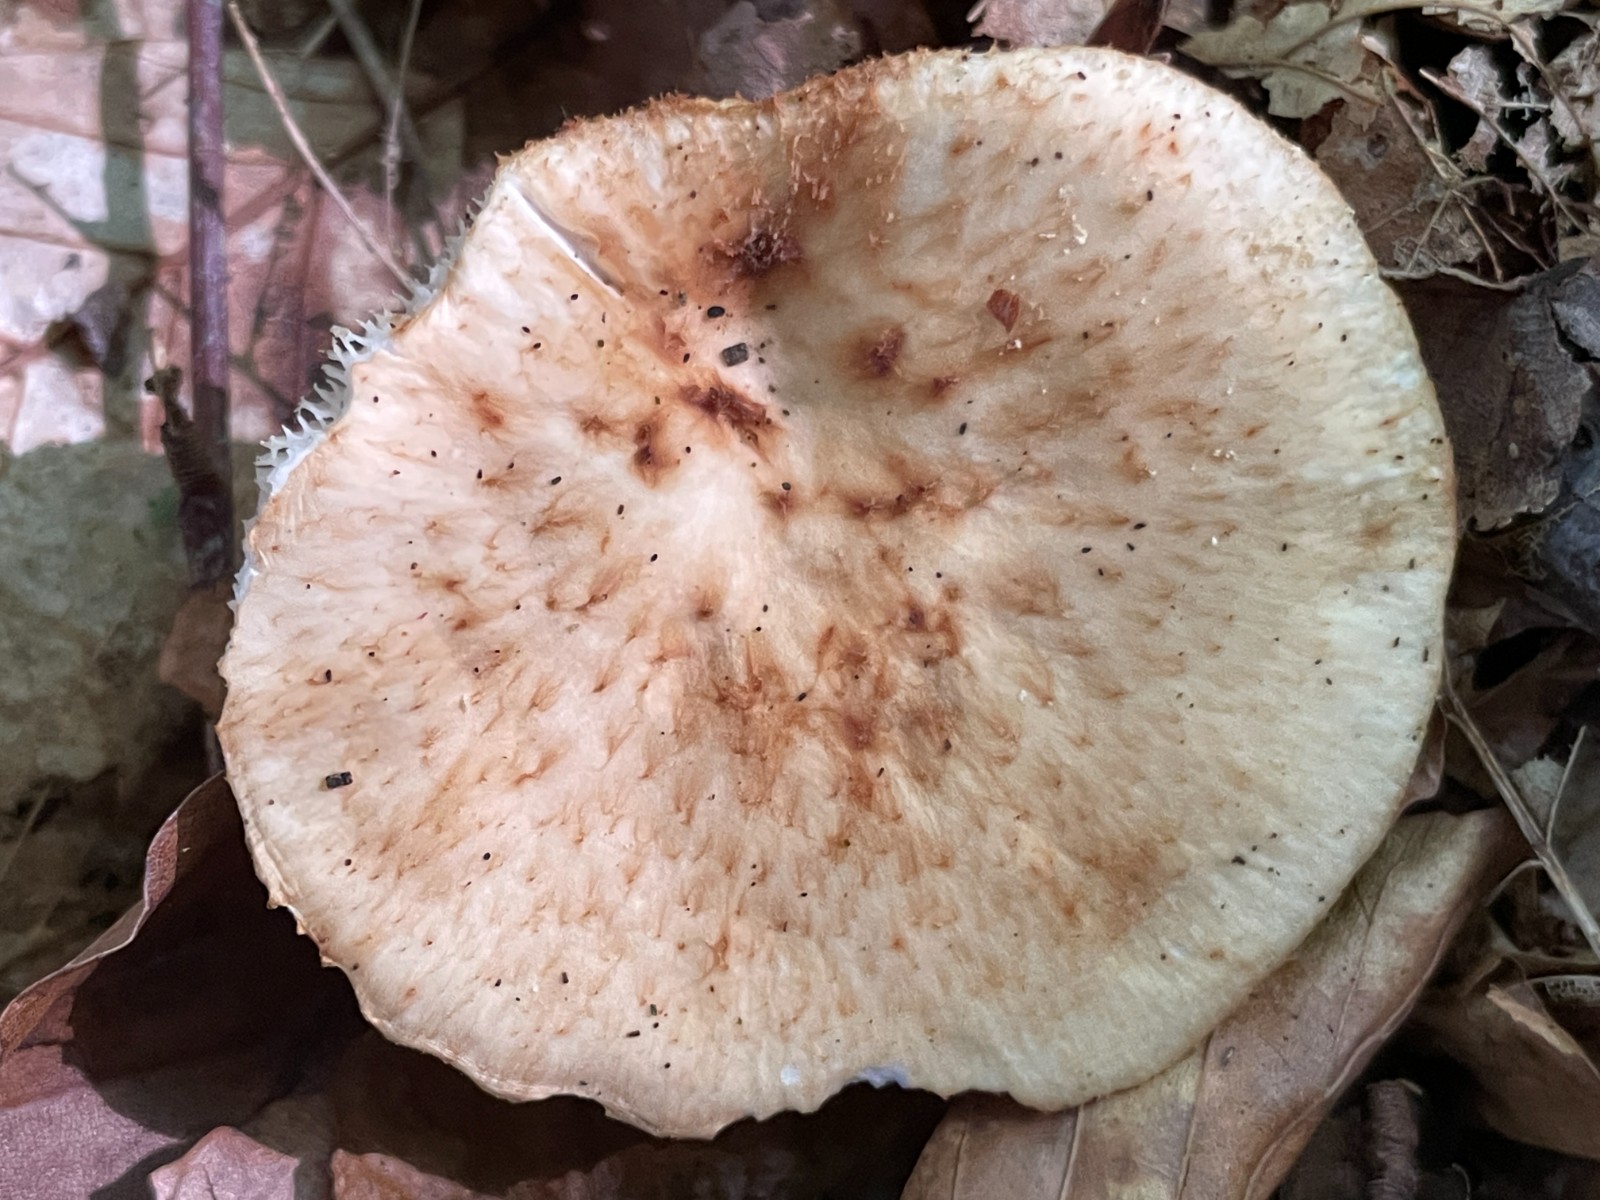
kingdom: Fungi
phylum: Basidiomycota
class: Agaricomycetes
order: Polyporales
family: Polyporaceae
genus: Polyporus
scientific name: Polyporus tuberaster
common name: knoldet stilkporesvamp
